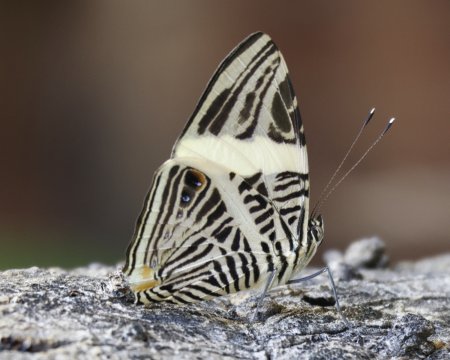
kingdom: Animalia
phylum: Arthropoda
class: Insecta
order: Lepidoptera
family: Nymphalidae
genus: Colobura
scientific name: Colobura dirce
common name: Dirce Beauty
